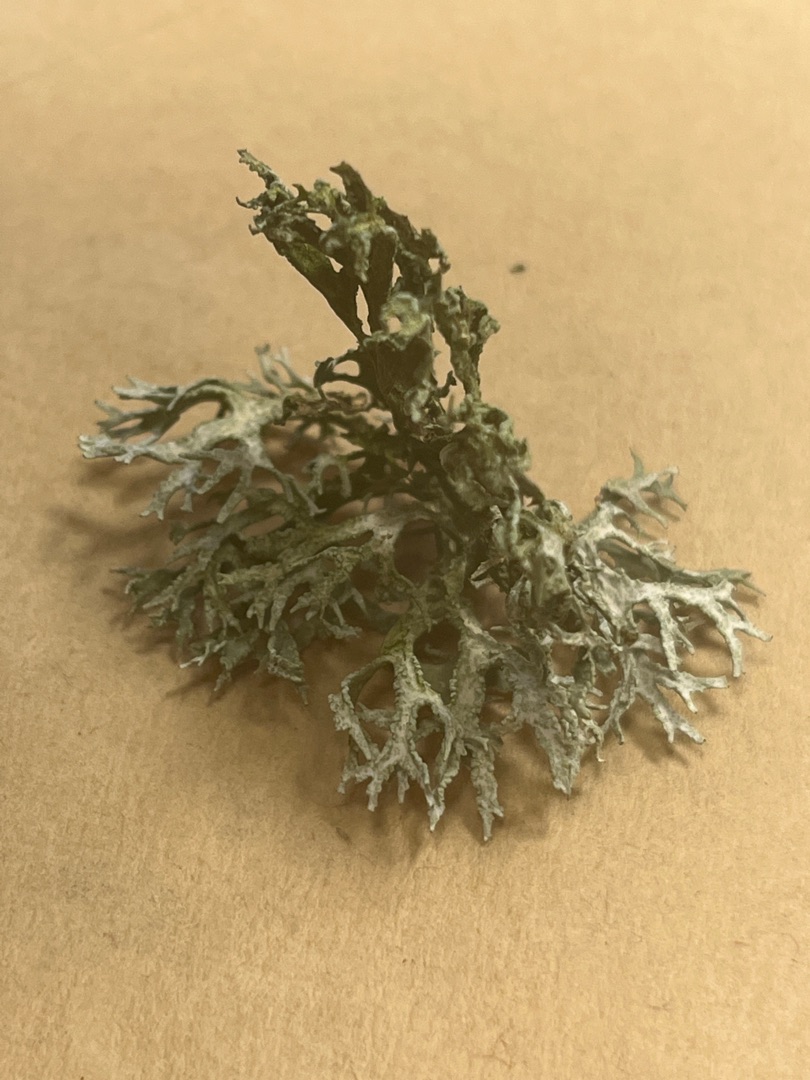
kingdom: Fungi
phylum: Ascomycota
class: Lecanoromycetes
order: Lecanorales
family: Parmeliaceae
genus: Evernia
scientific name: Evernia prunastri
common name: Almindelig slåenlav
